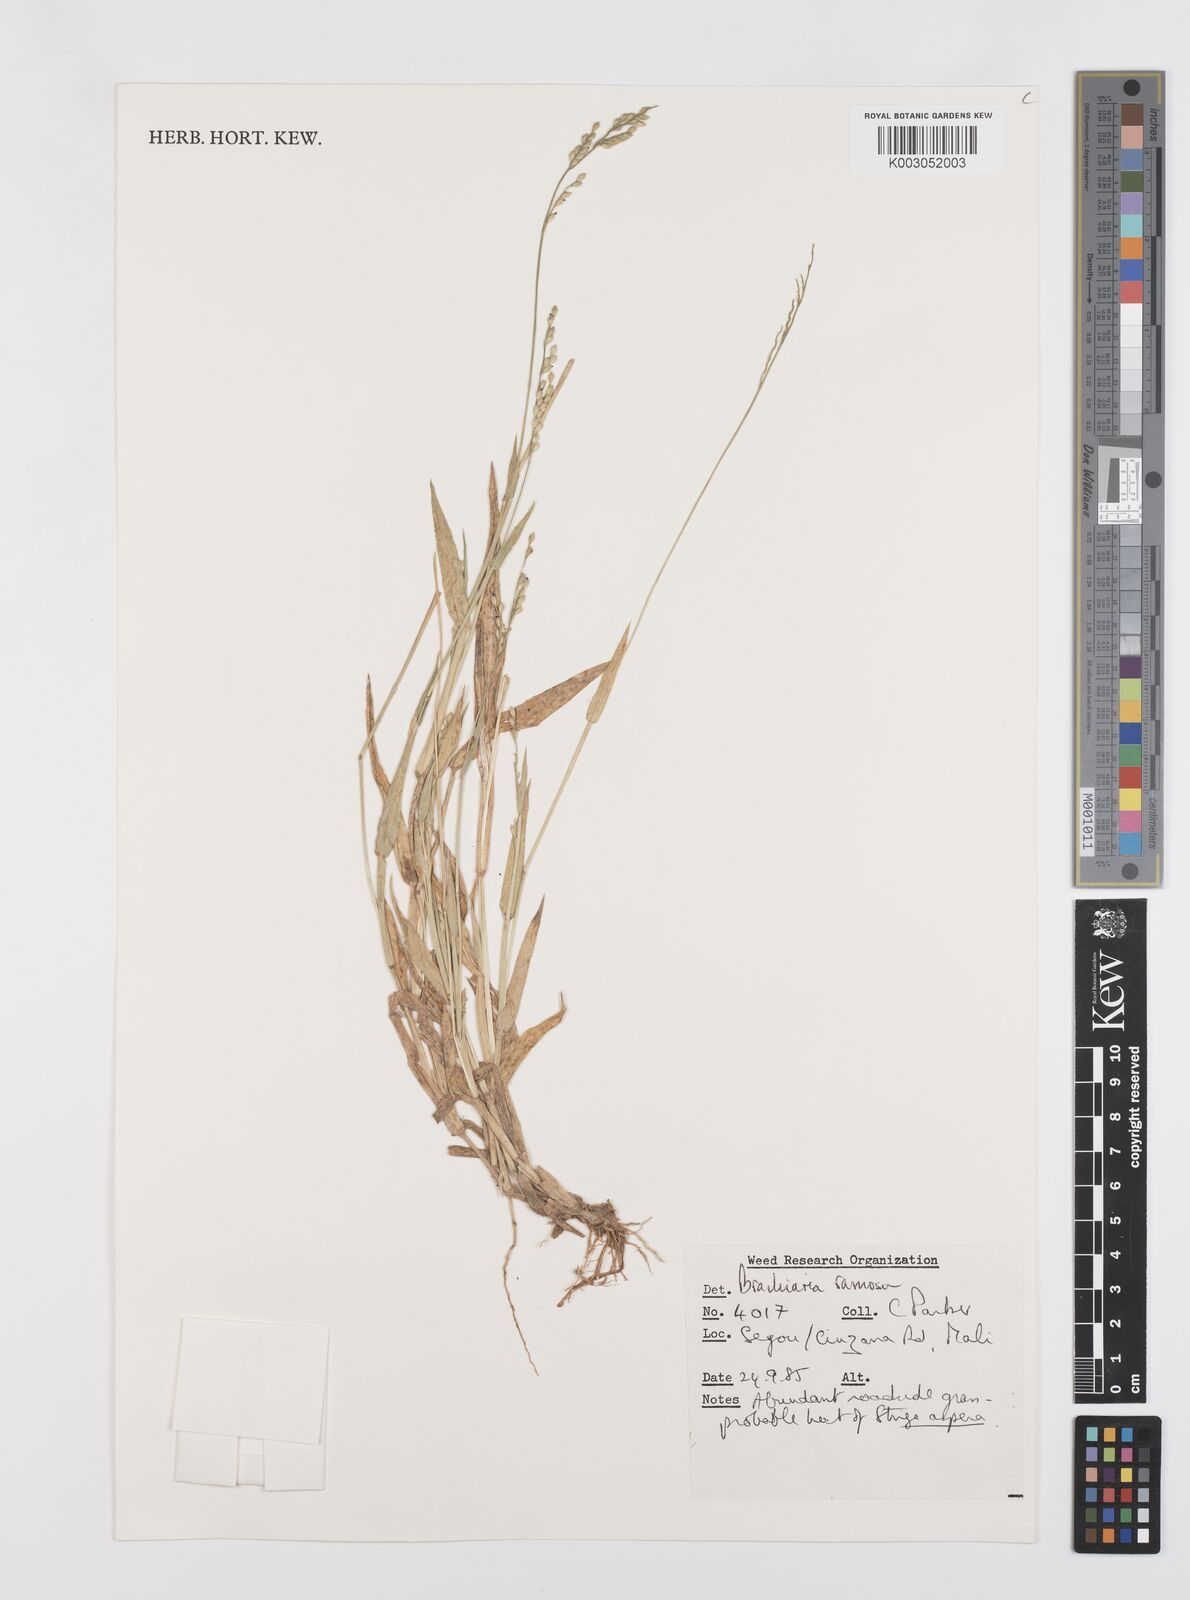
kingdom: Plantae
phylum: Tracheophyta
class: Liliopsida
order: Poales
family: Poaceae
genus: Urochloa
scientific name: Urochloa ramosa
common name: Browntop millet
